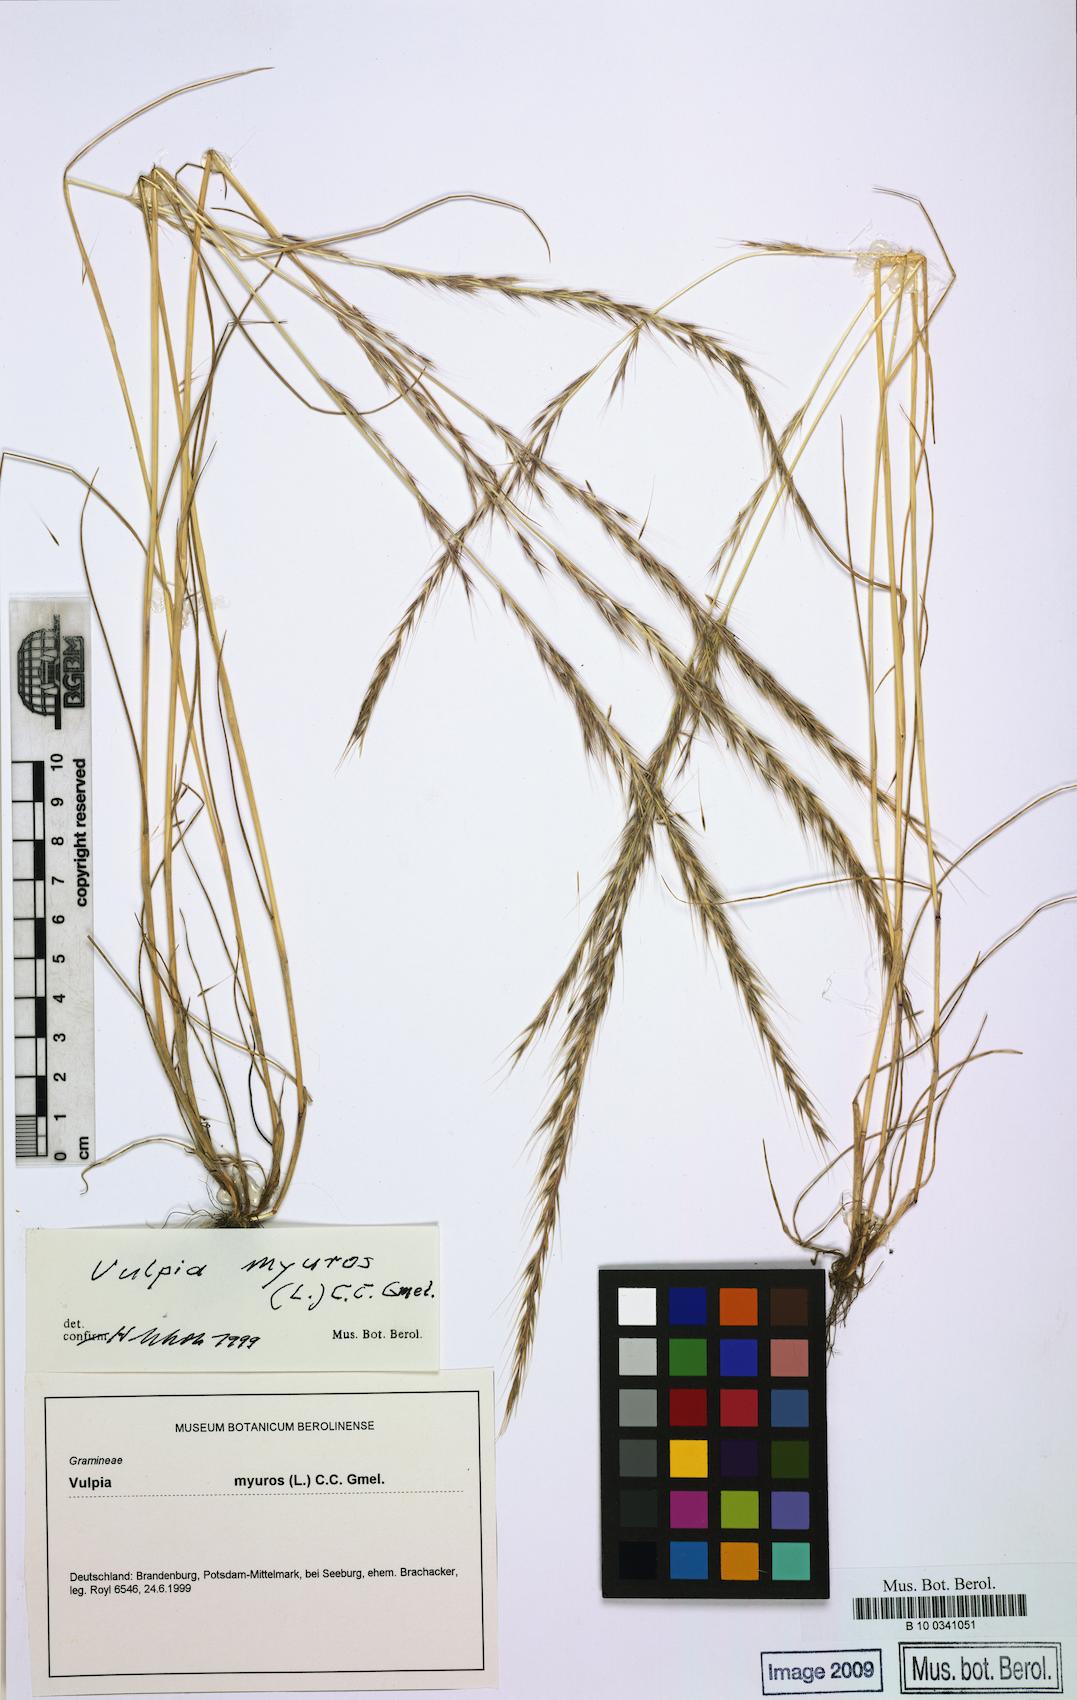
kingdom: Plantae
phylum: Tracheophyta
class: Liliopsida
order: Poales
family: Poaceae
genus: Festuca
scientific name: Festuca myuros
